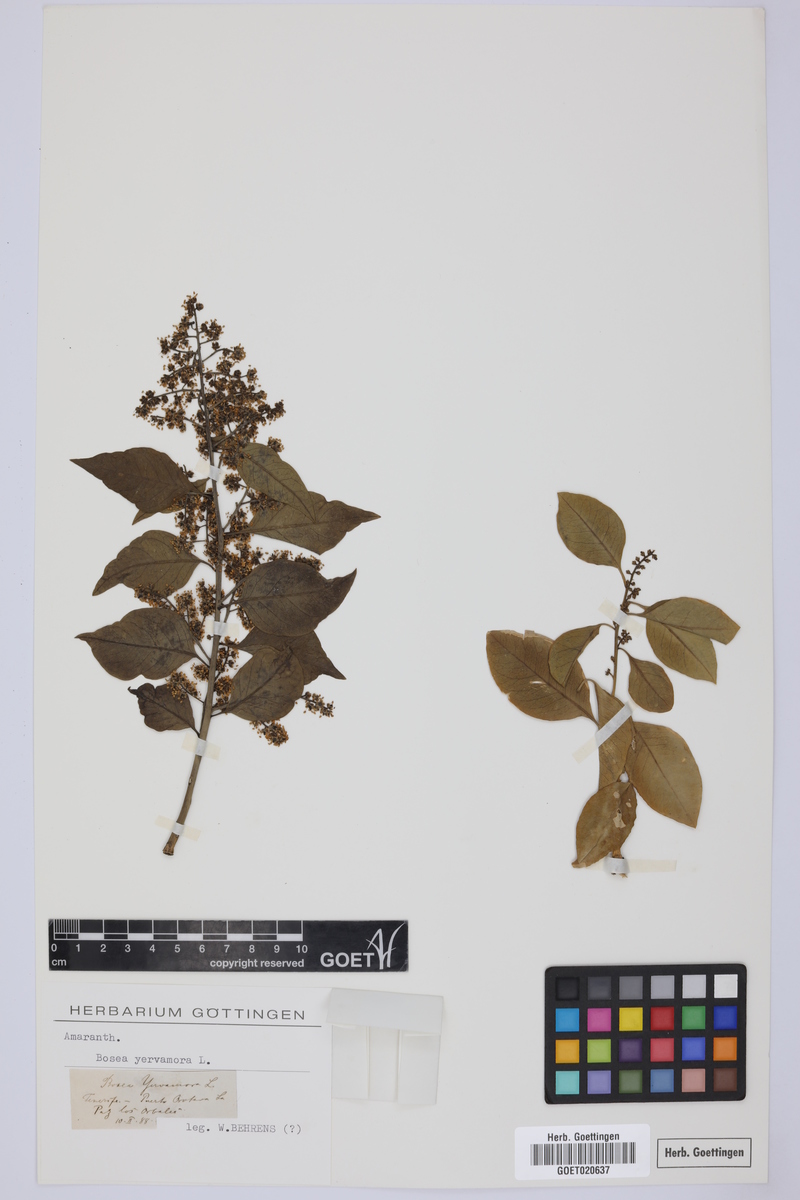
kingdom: Plantae
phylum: Tracheophyta
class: Magnoliopsida
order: Caryophyllales
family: Amaranthaceae
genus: Bosea
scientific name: Bosea yervamora
